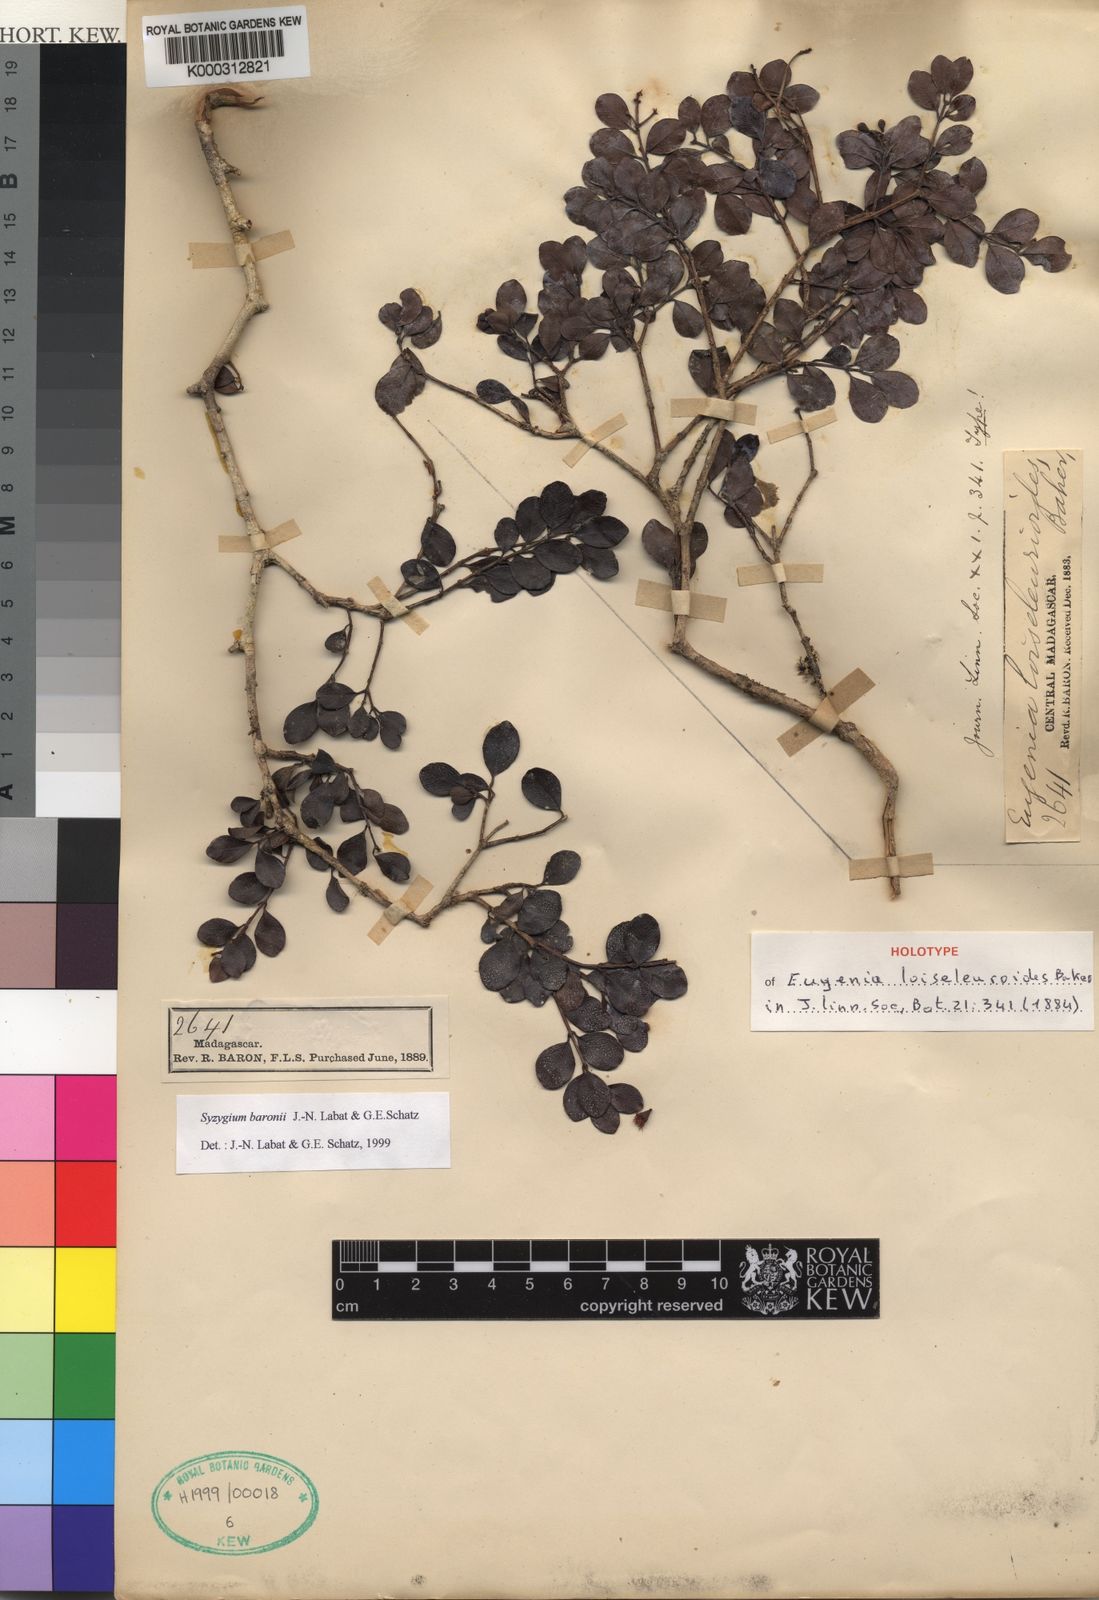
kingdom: Plantae
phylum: Tracheophyta
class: Magnoliopsida
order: Myrtales
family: Myrtaceae
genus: Syzygium
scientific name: Syzygium
